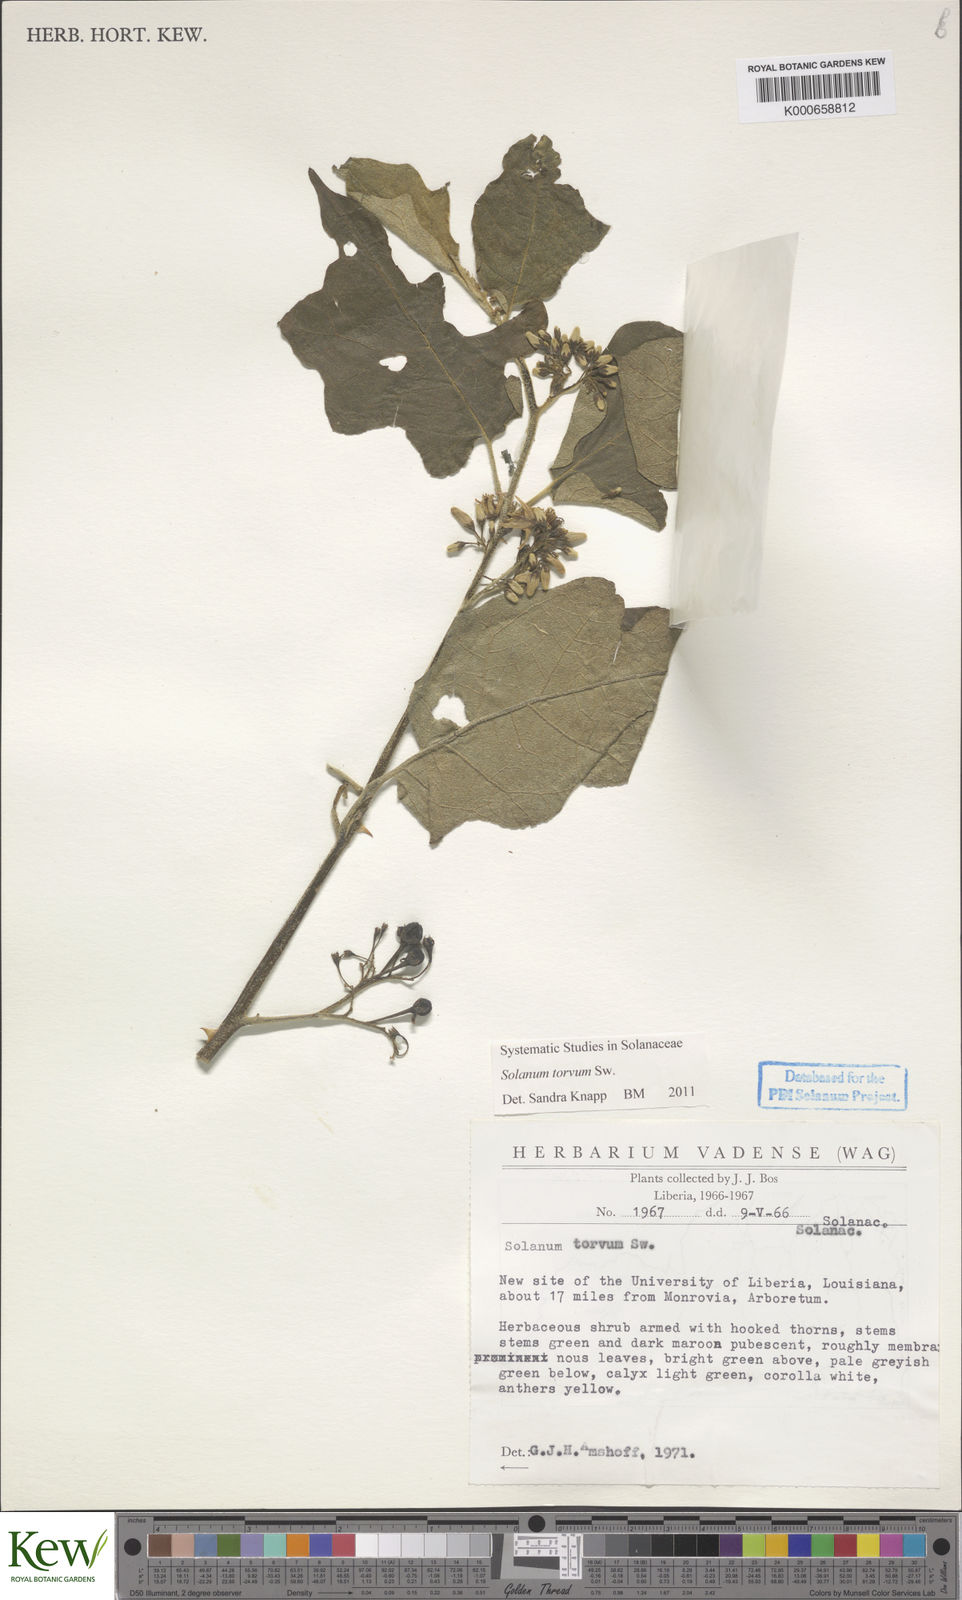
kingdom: Plantae
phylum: Tracheophyta
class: Magnoliopsida
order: Solanales
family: Solanaceae
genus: Solanum
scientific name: Solanum torvum
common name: Turkey berry
